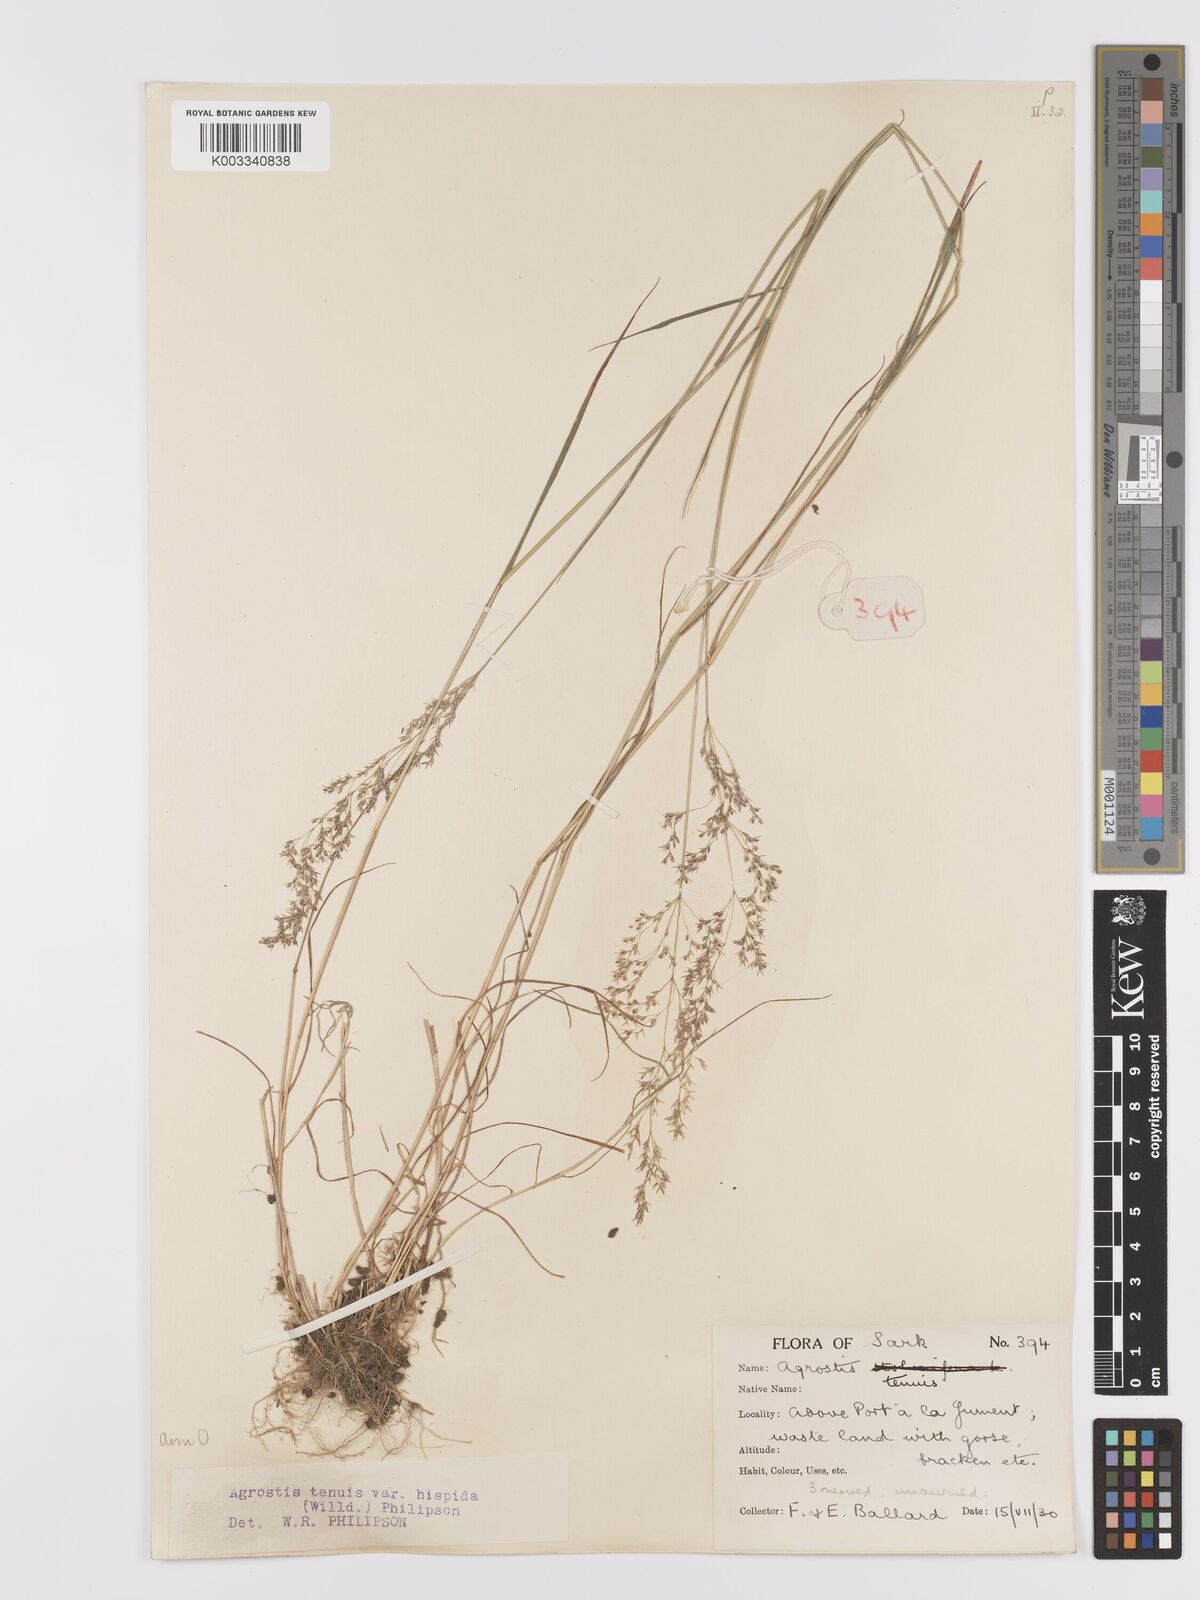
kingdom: Plantae
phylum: Tracheophyta
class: Liliopsida
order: Poales
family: Poaceae
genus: Agrostis
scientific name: Agrostis capillaris
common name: Colonial bentgrass
